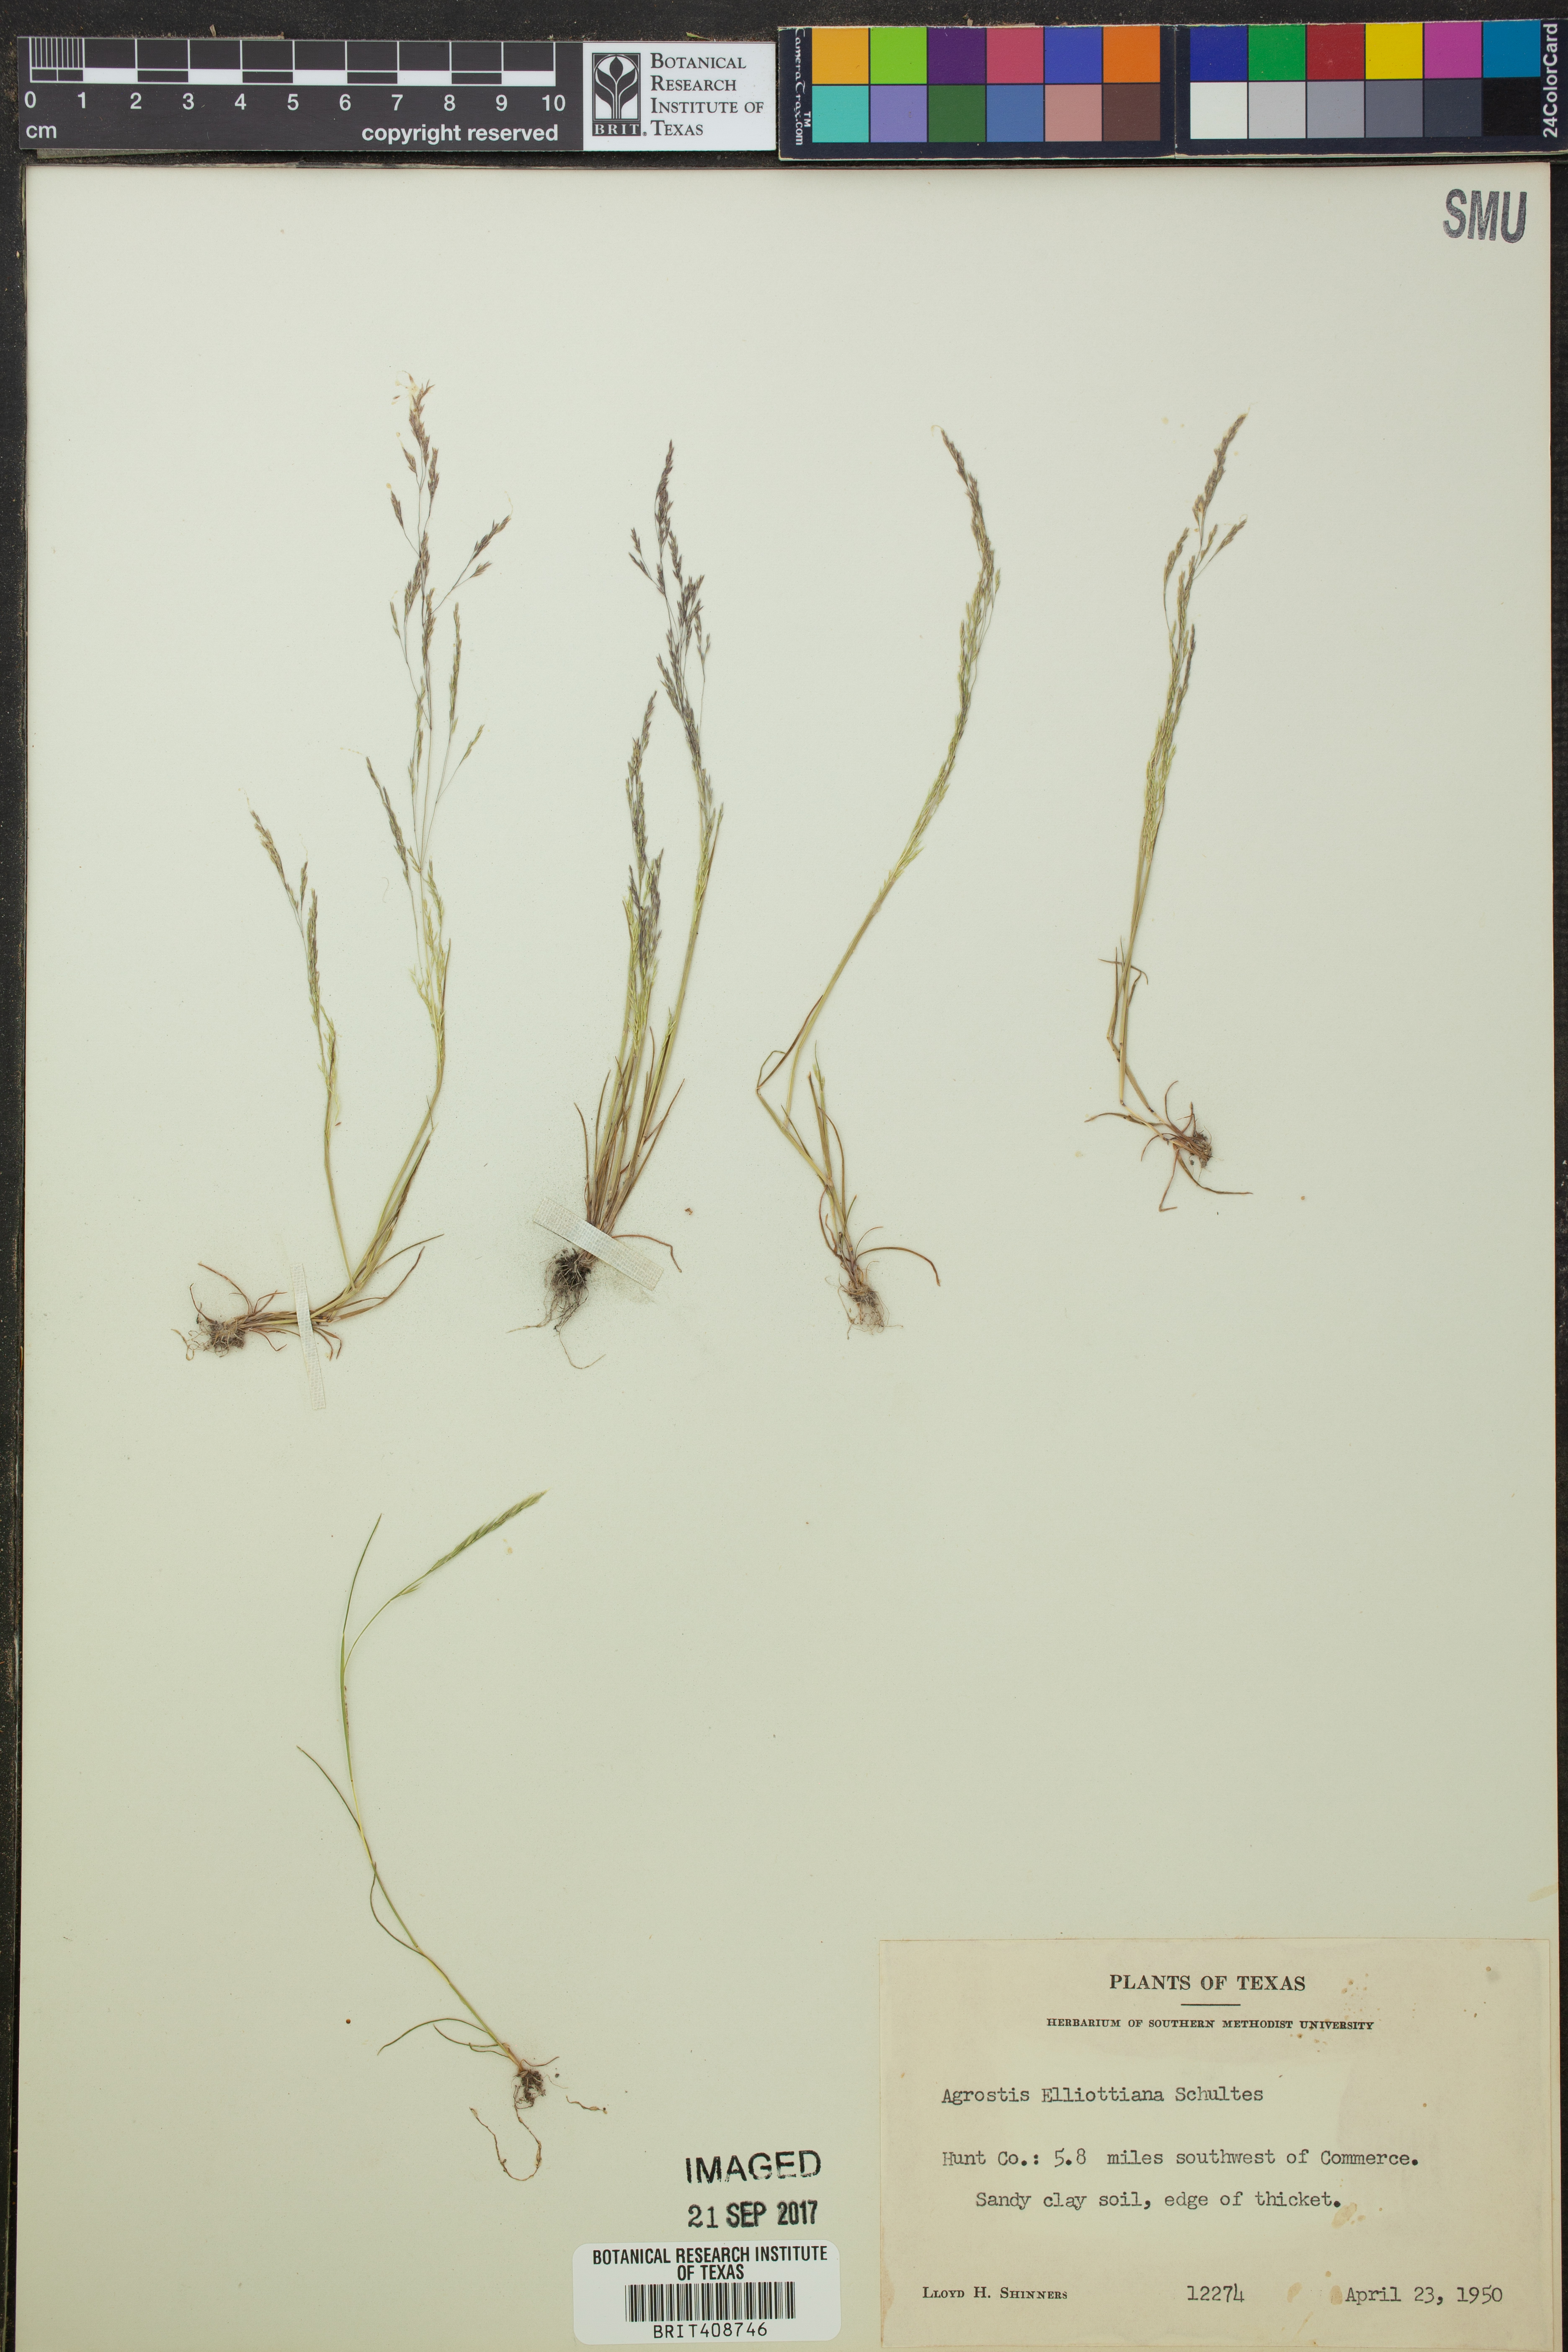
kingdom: Plantae
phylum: Tracheophyta
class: Liliopsida
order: Poales
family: Poaceae
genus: Agrostis
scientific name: Agrostis elliottiana
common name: Elliott's bent
